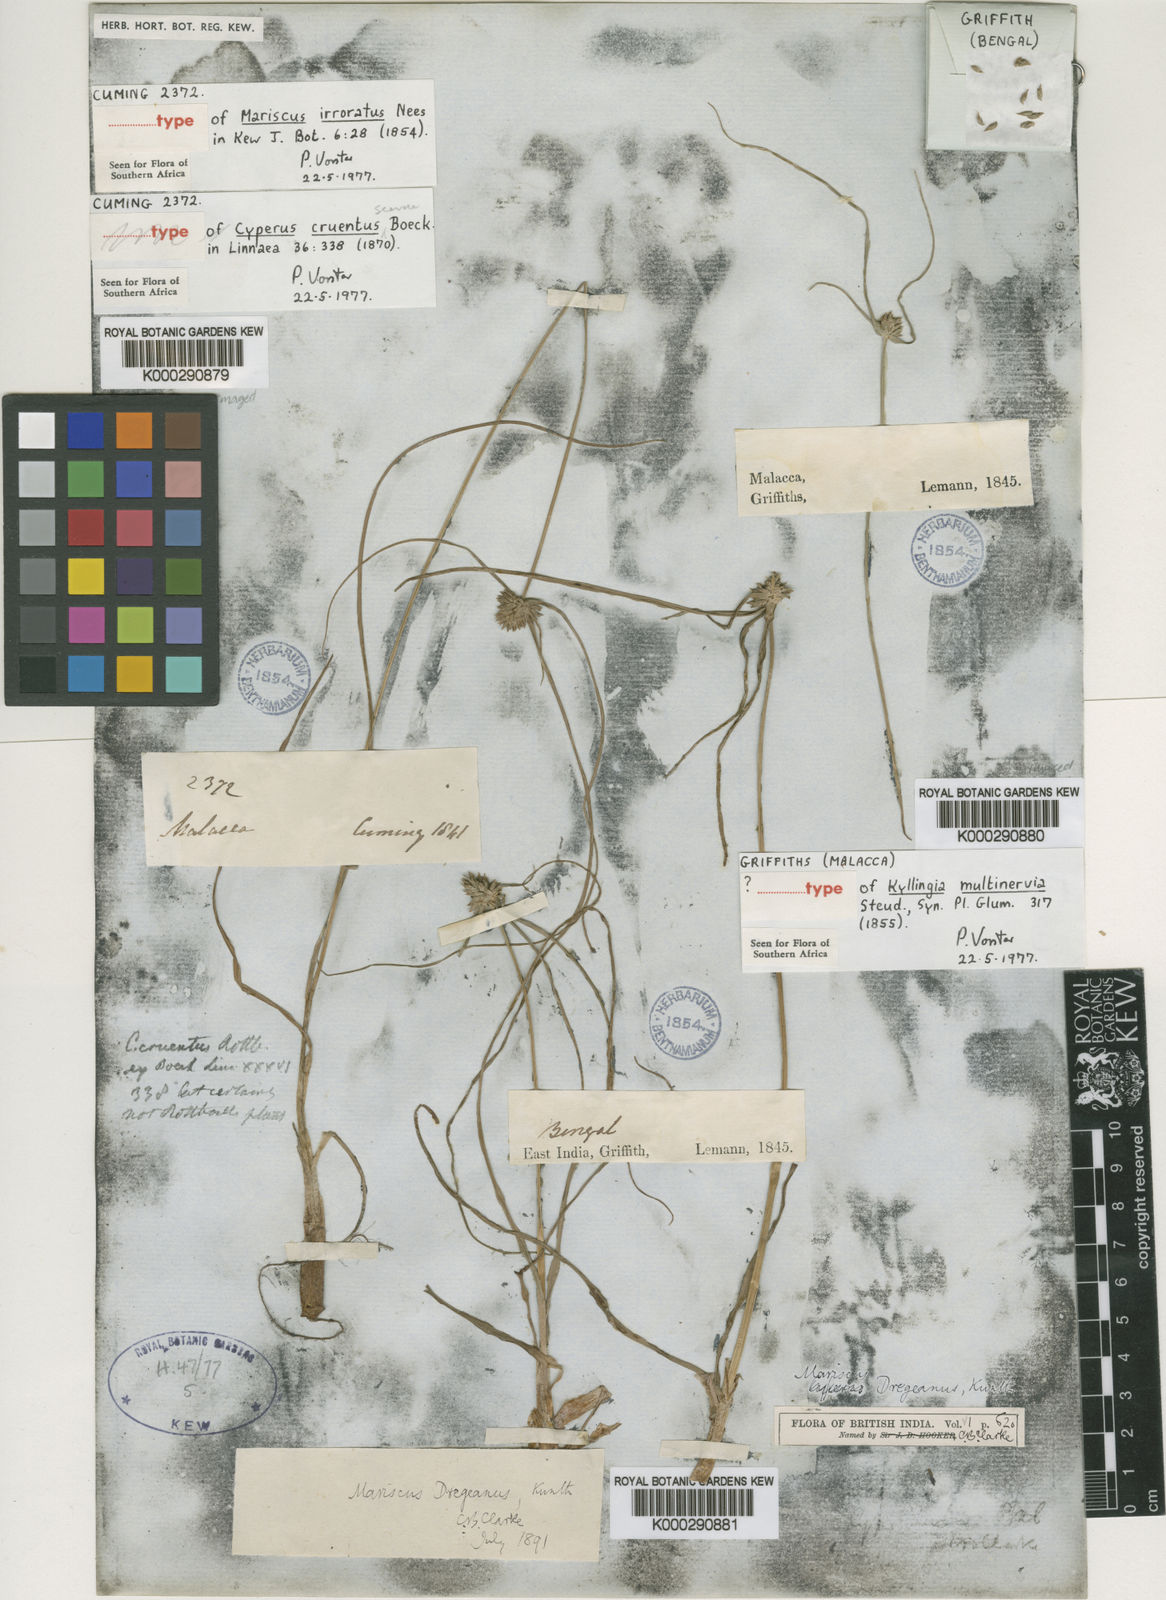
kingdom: Plantae
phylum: Tracheophyta
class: Liliopsida
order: Poales
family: Cyperaceae
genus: Cyperus
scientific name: Cyperus dubius
